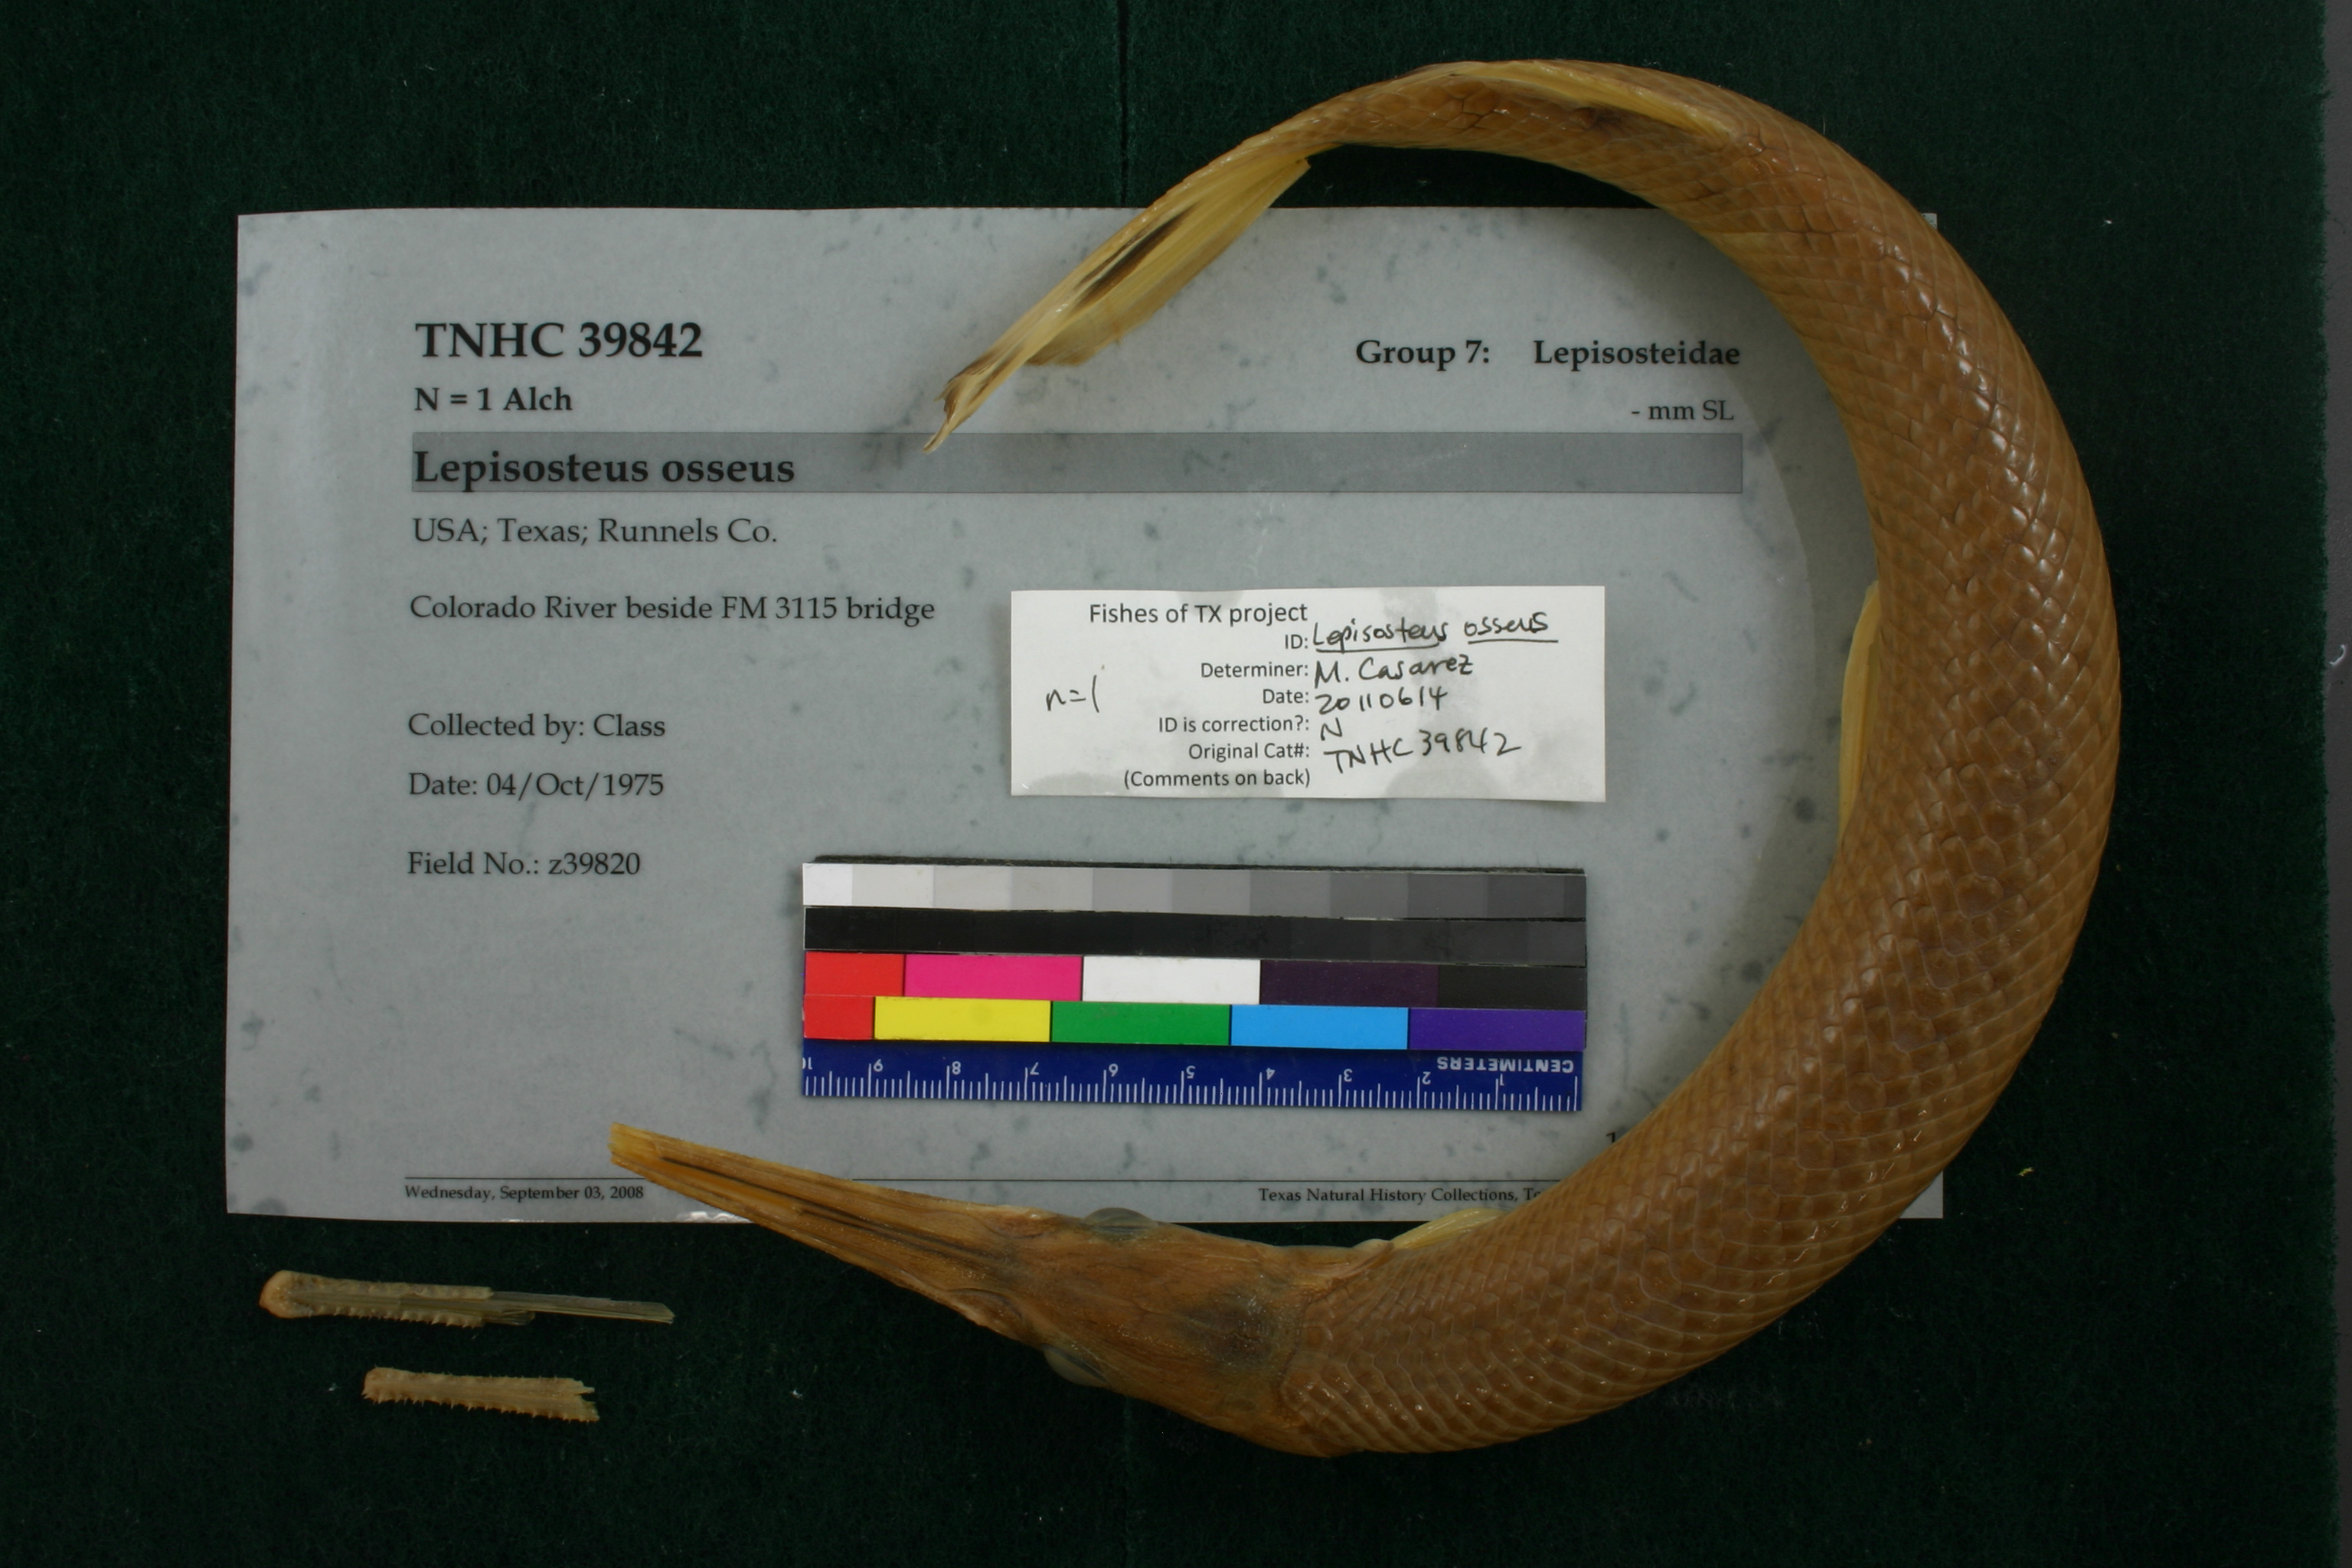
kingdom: Animalia
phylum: Chordata
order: Lepisosteiformes
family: Lepisosteidae
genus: Lepisosteus
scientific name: Lepisosteus osseus
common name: Longnose gar
